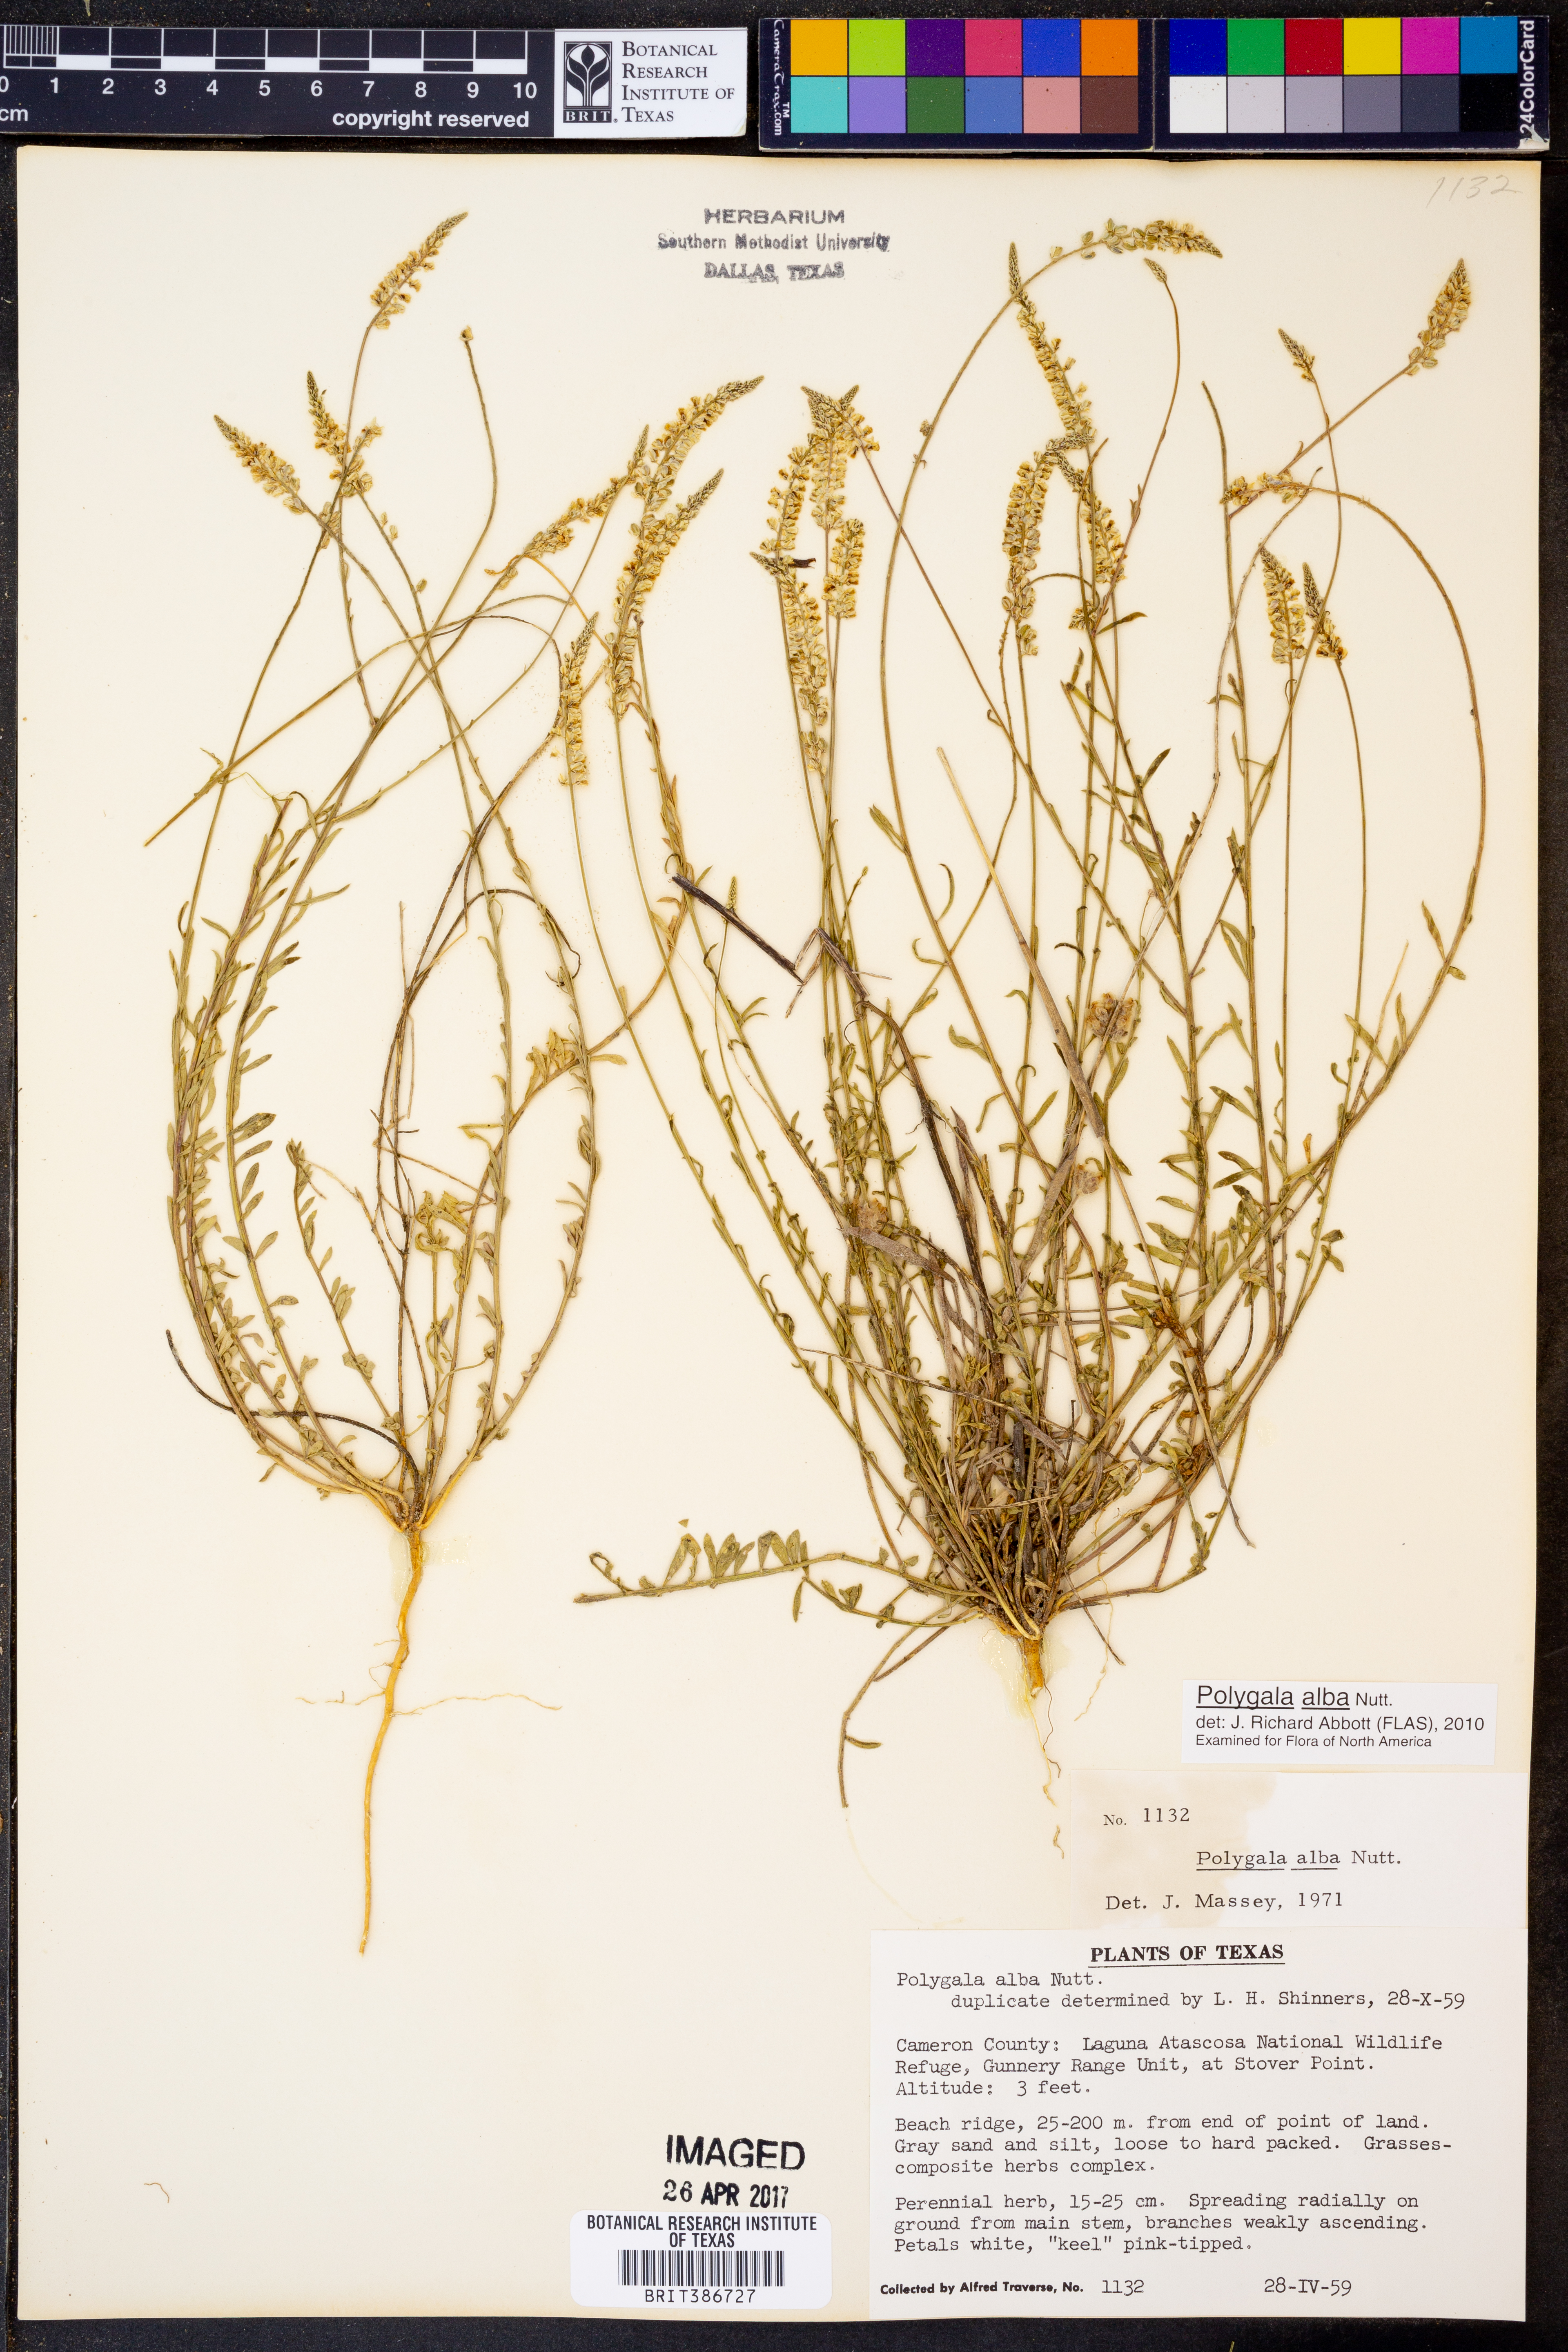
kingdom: Plantae
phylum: Tracheophyta
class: Magnoliopsida
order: Fabales
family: Polygalaceae
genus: Polygala
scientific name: Polygala alba
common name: White milkwort
